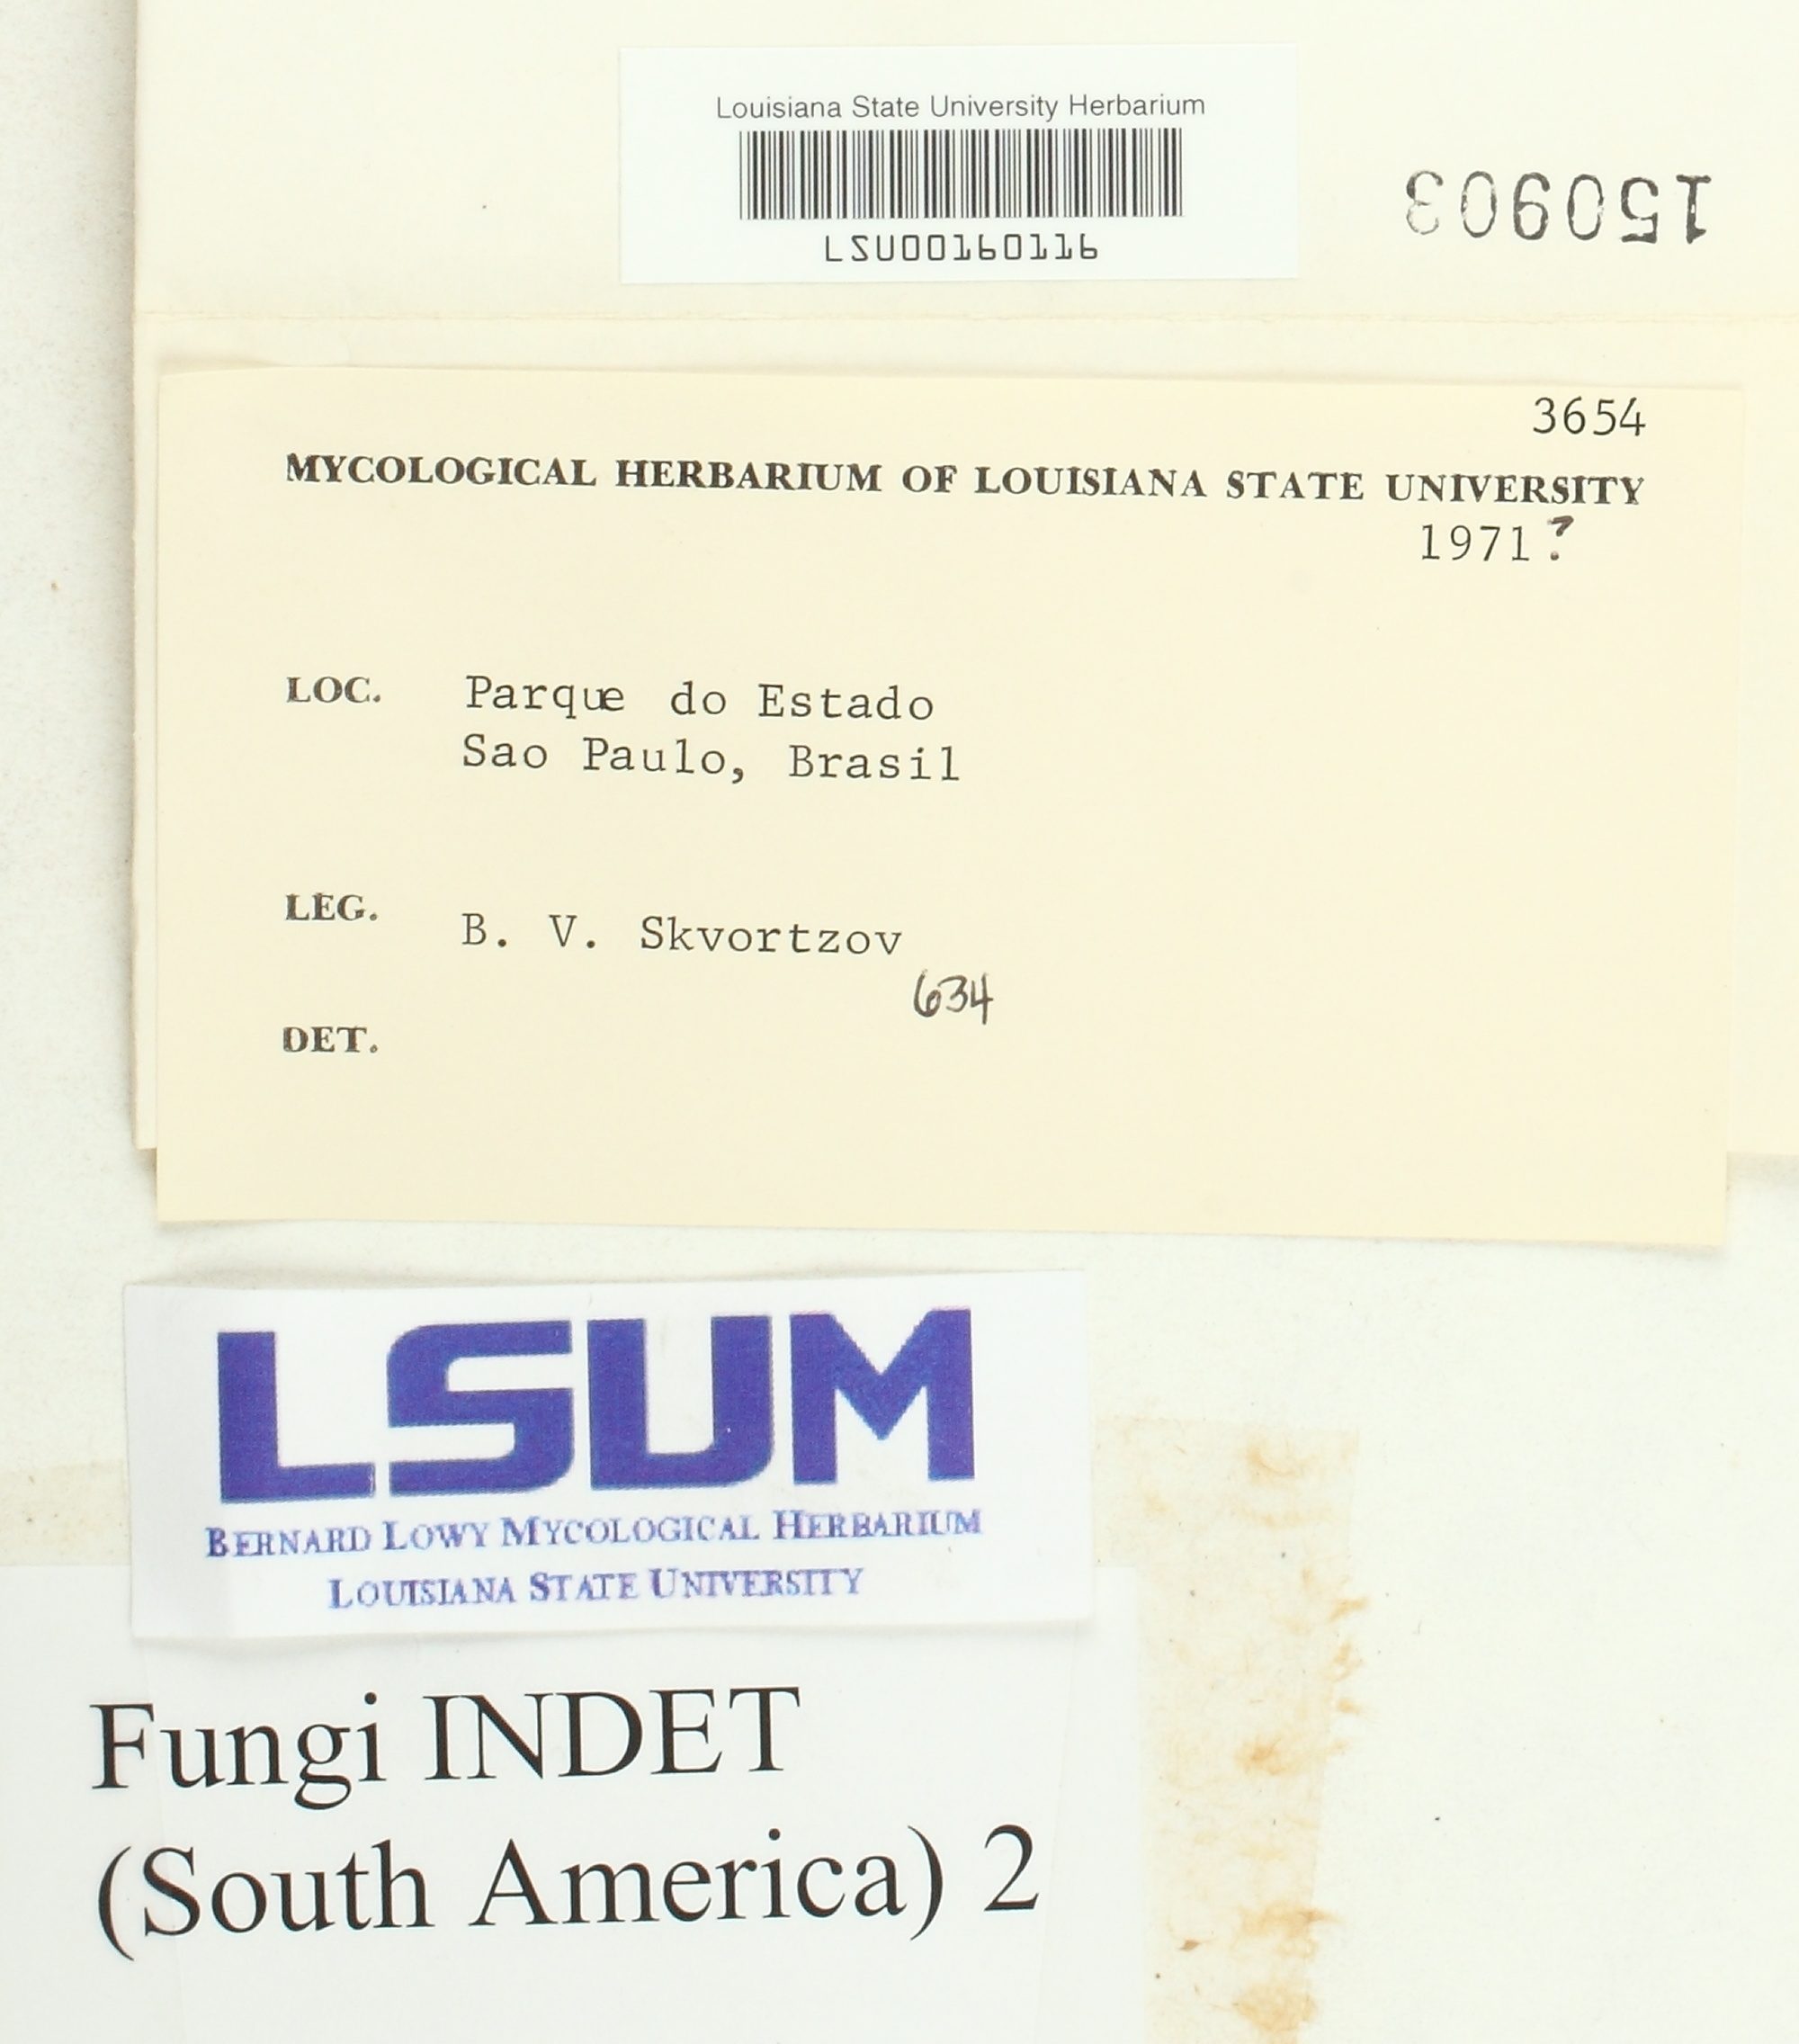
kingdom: Fungi
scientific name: Fungi
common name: Fungi
